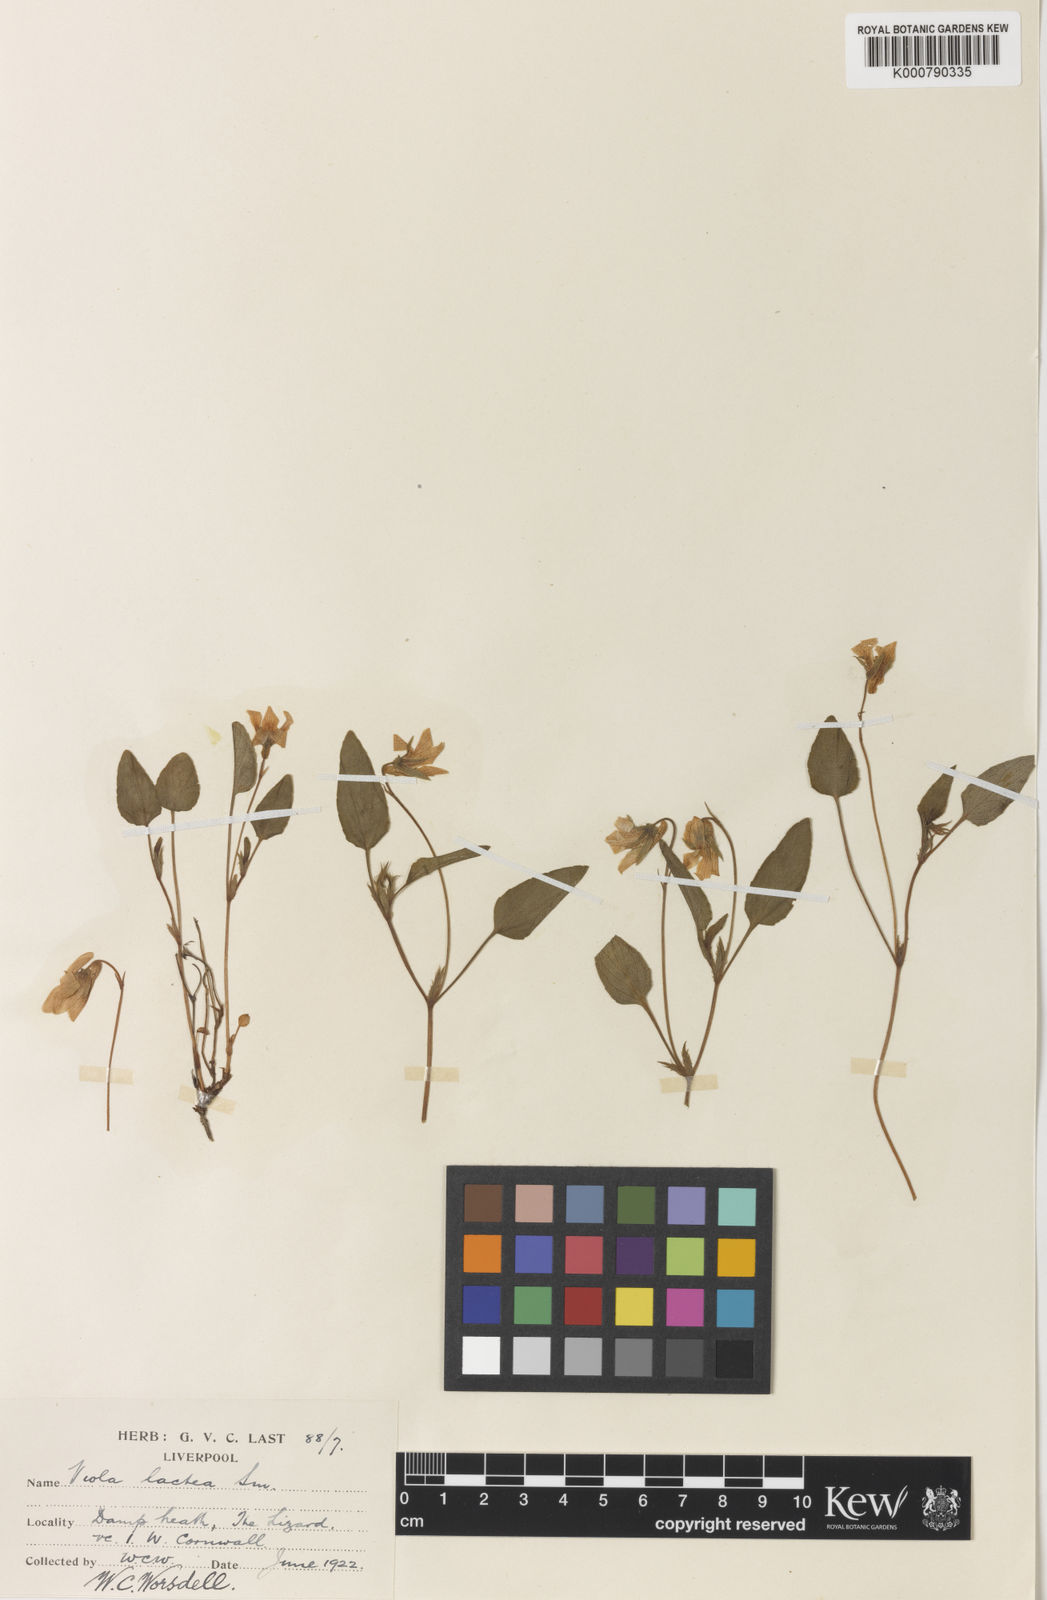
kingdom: Plantae
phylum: Tracheophyta
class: Magnoliopsida
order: Malpighiales
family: Violaceae
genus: Viola
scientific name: Viola lactea
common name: Pale dog-violet
